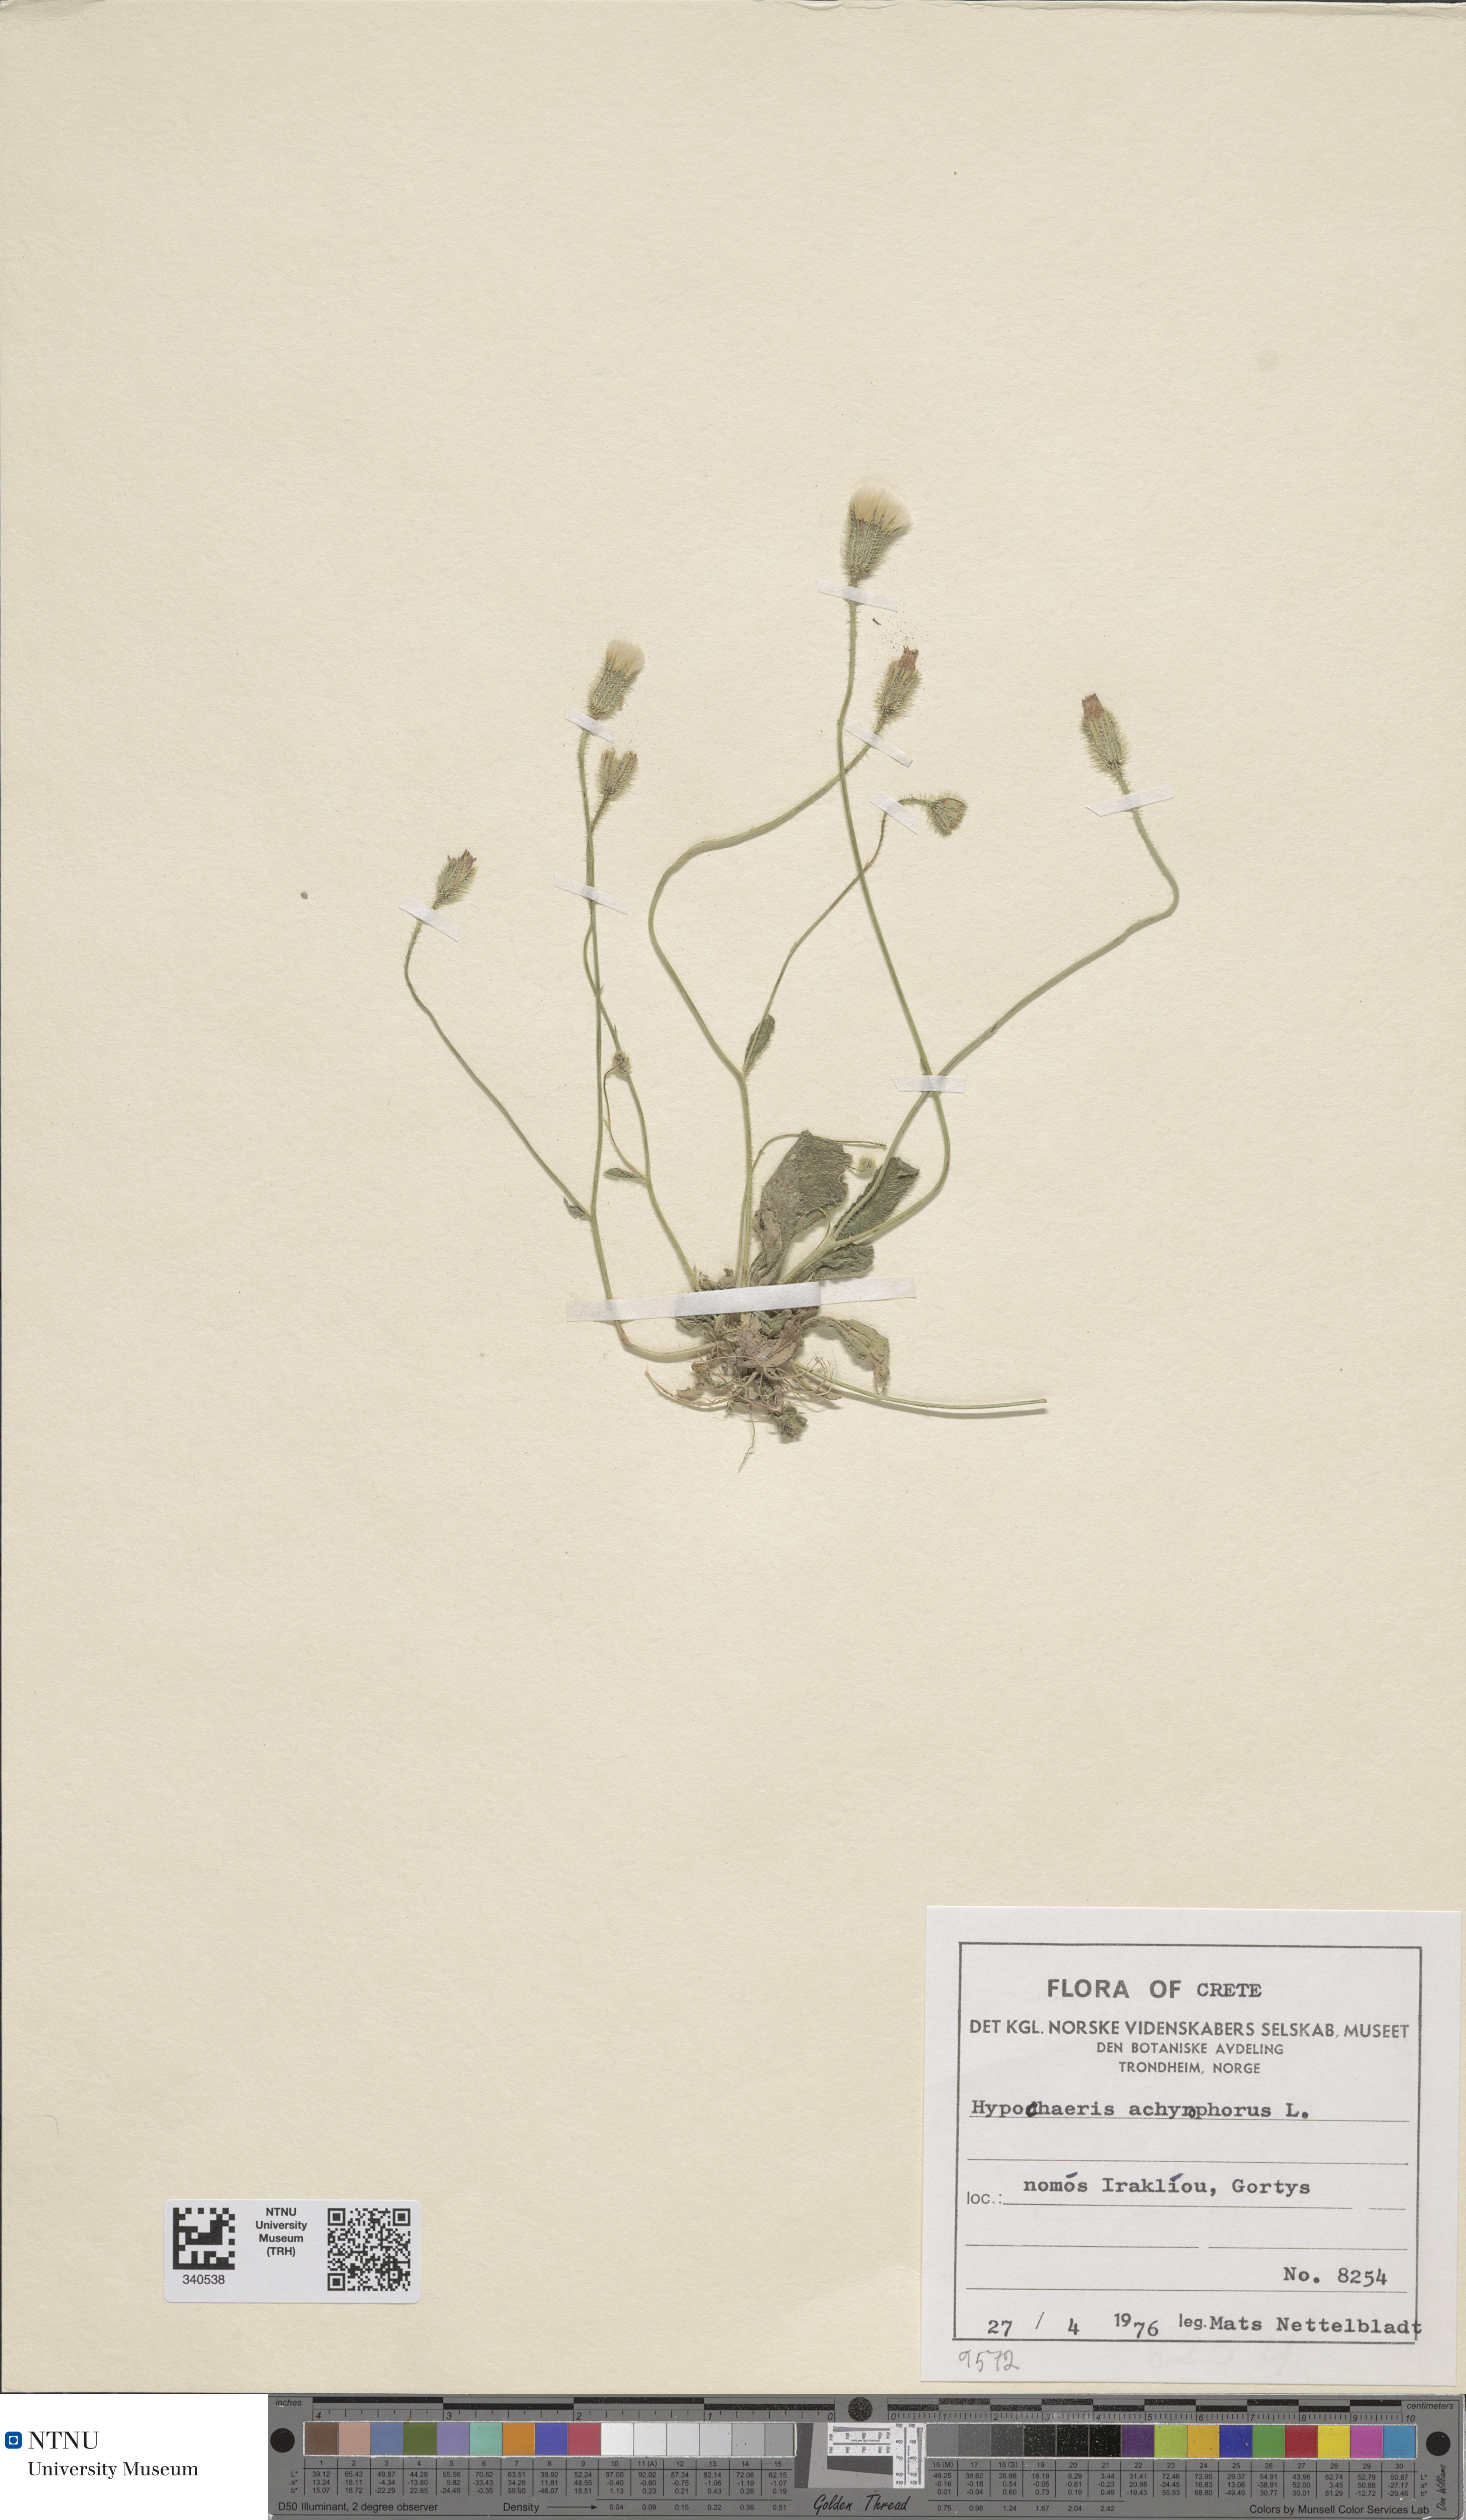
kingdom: Plantae
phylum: Tracheophyta
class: Magnoliopsida
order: Asterales
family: Asteraceae
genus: Achyrophorus
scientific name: Achyrophorus valdesii
